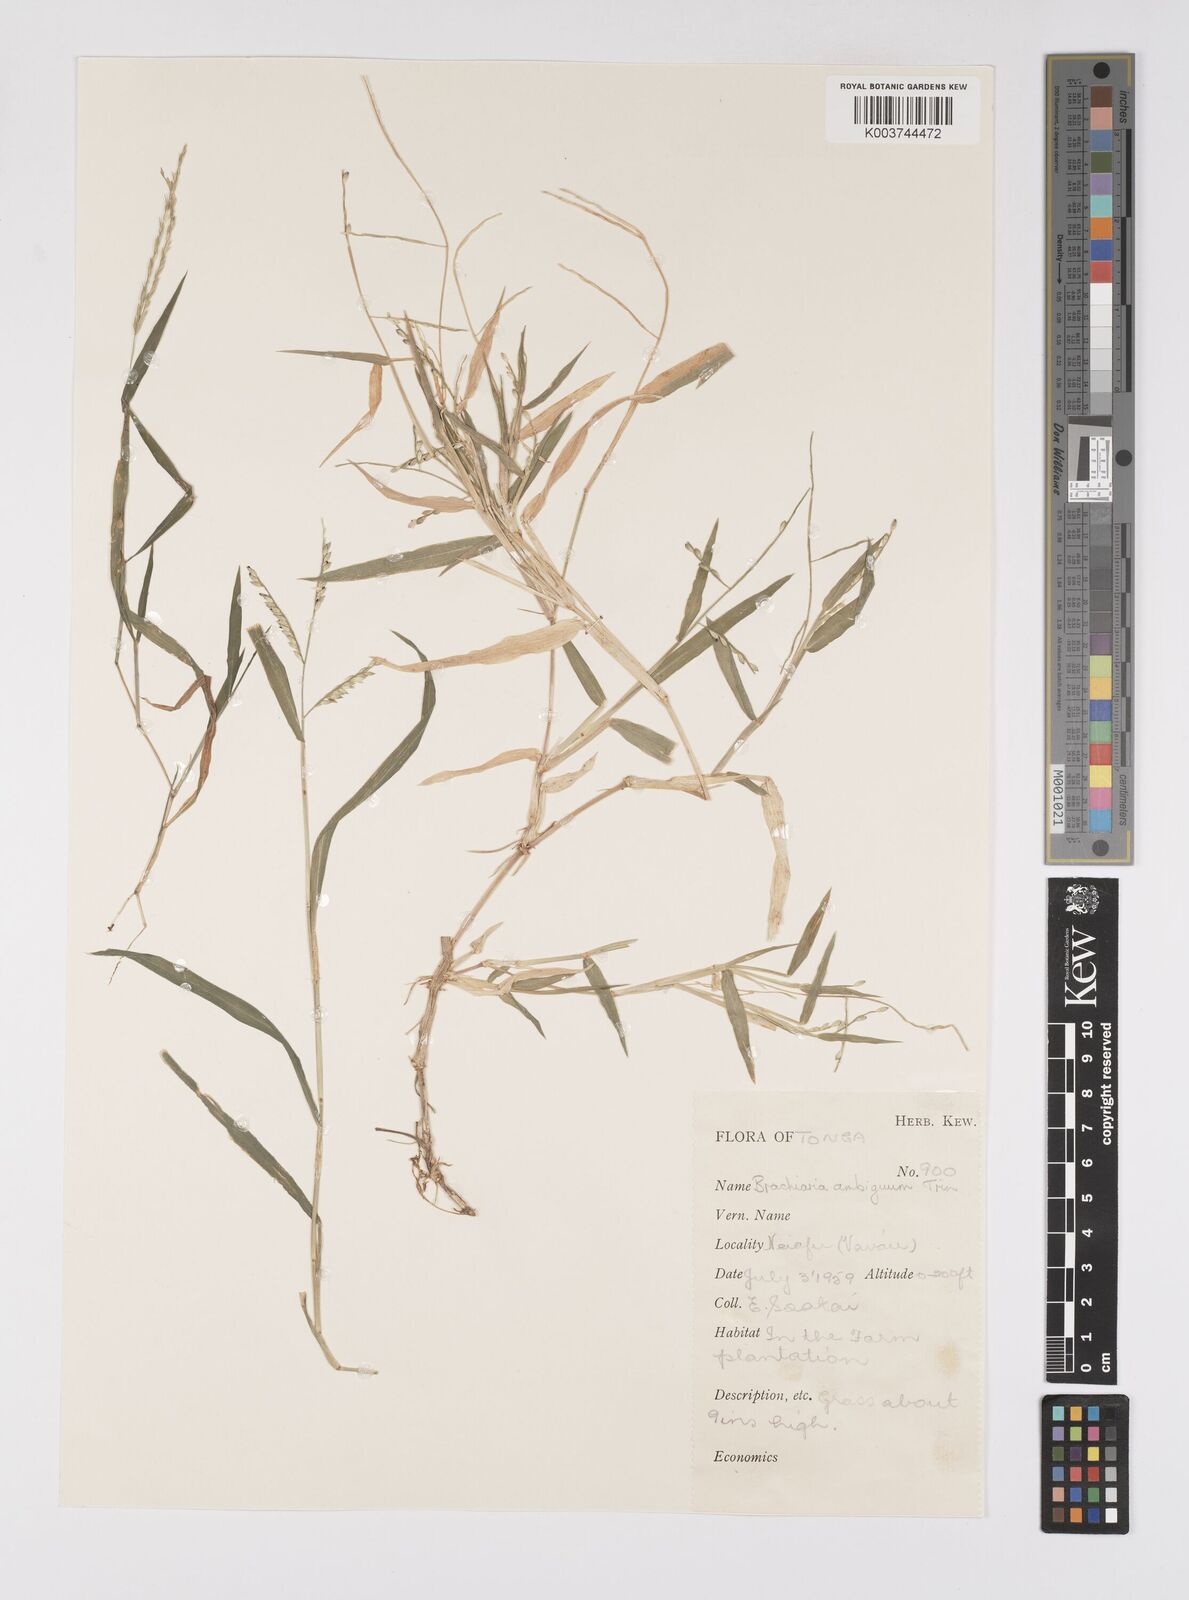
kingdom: Plantae
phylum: Tracheophyta
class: Liliopsida
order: Poales
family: Poaceae
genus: Urochloa
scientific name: Urochloa glumaris
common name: Thurston grass
